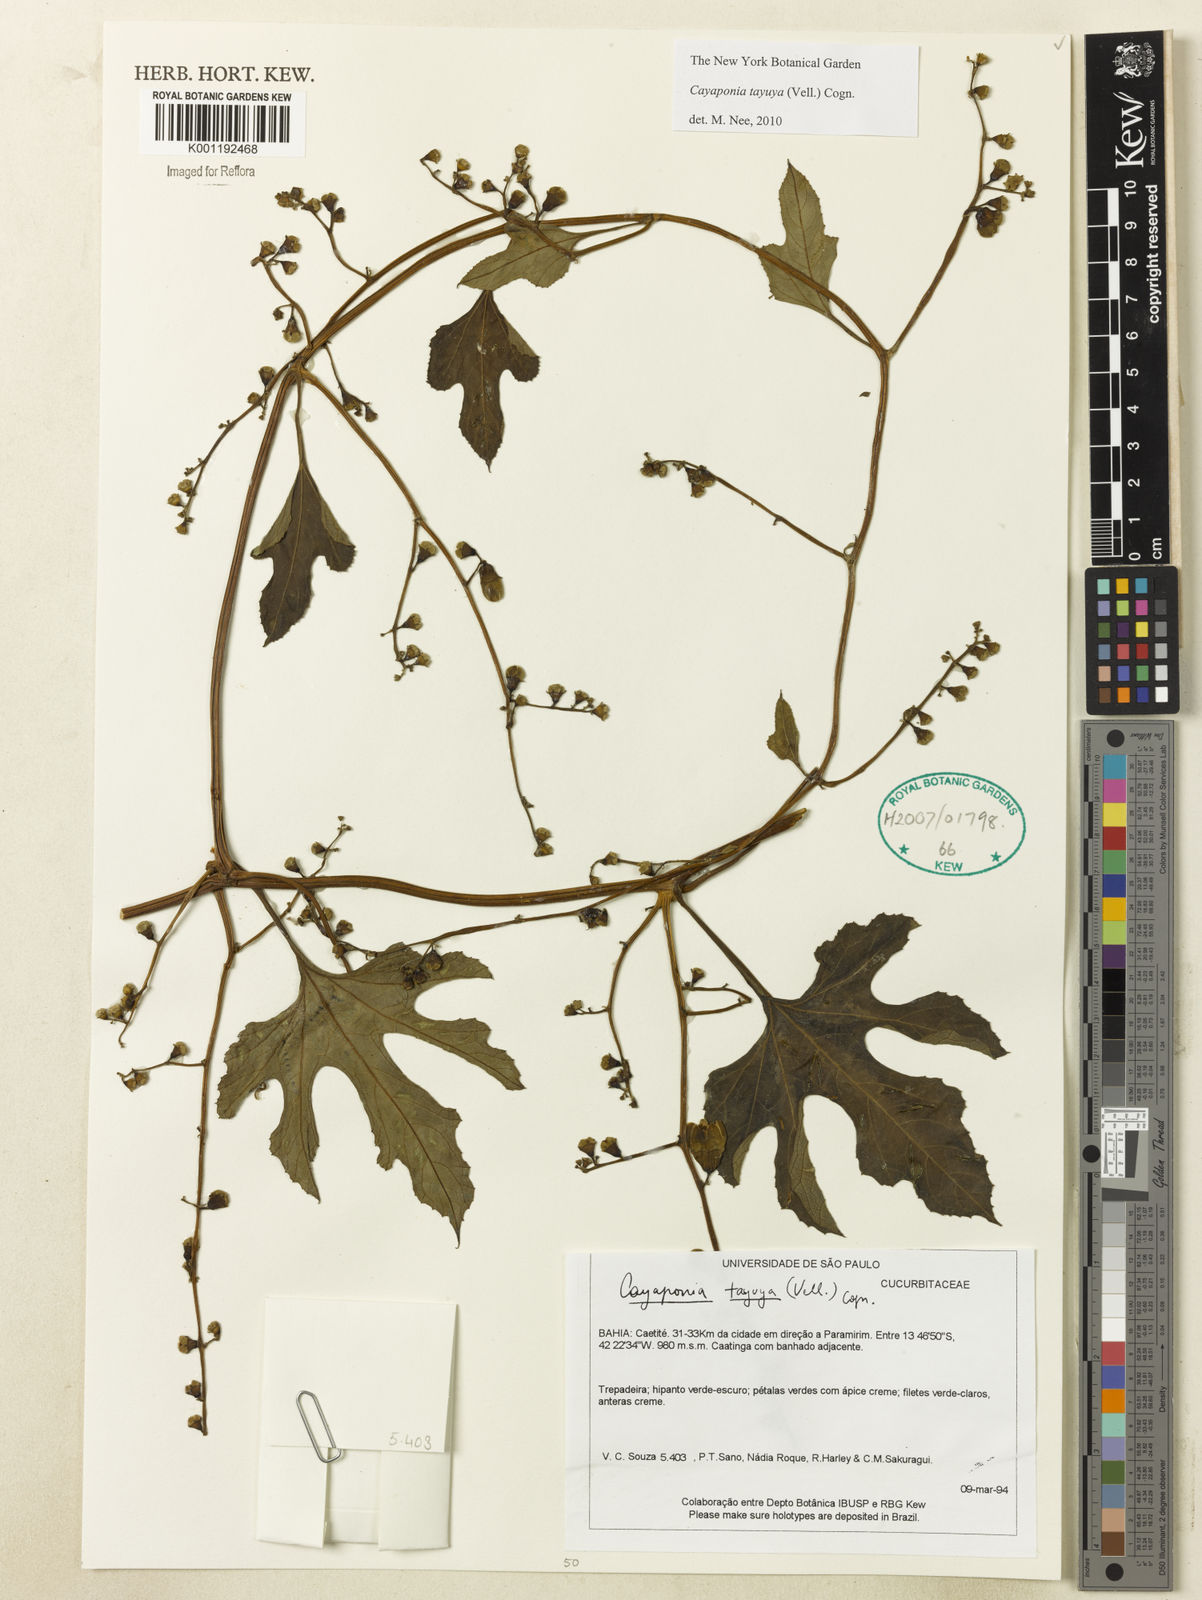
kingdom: Plantae
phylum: Tracheophyta
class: Magnoliopsida
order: Cucurbitales
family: Cucurbitaceae
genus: Cayaponia
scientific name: Cayaponia tayuya
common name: Tayuya
